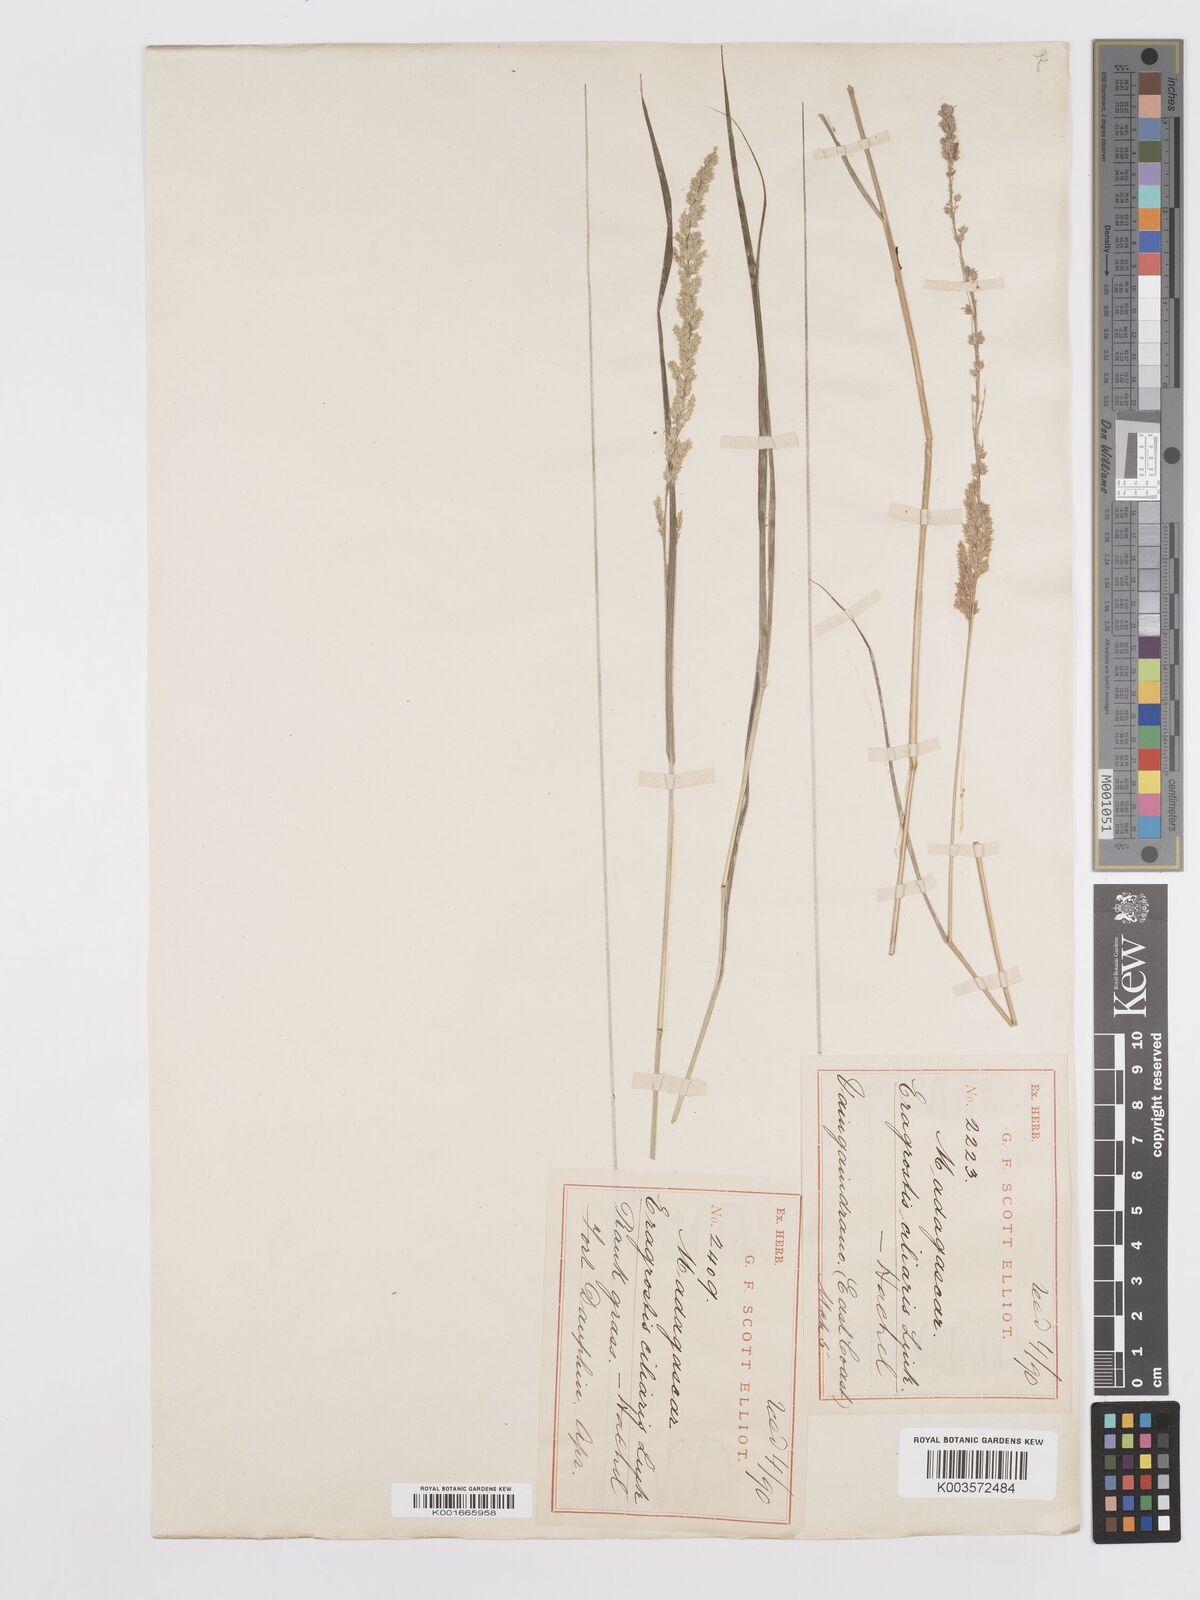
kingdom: Plantae
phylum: Tracheophyta
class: Liliopsida
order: Poales
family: Poaceae
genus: Eragrostis
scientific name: Eragrostis ciliaris
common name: Gophertail lovegrass
